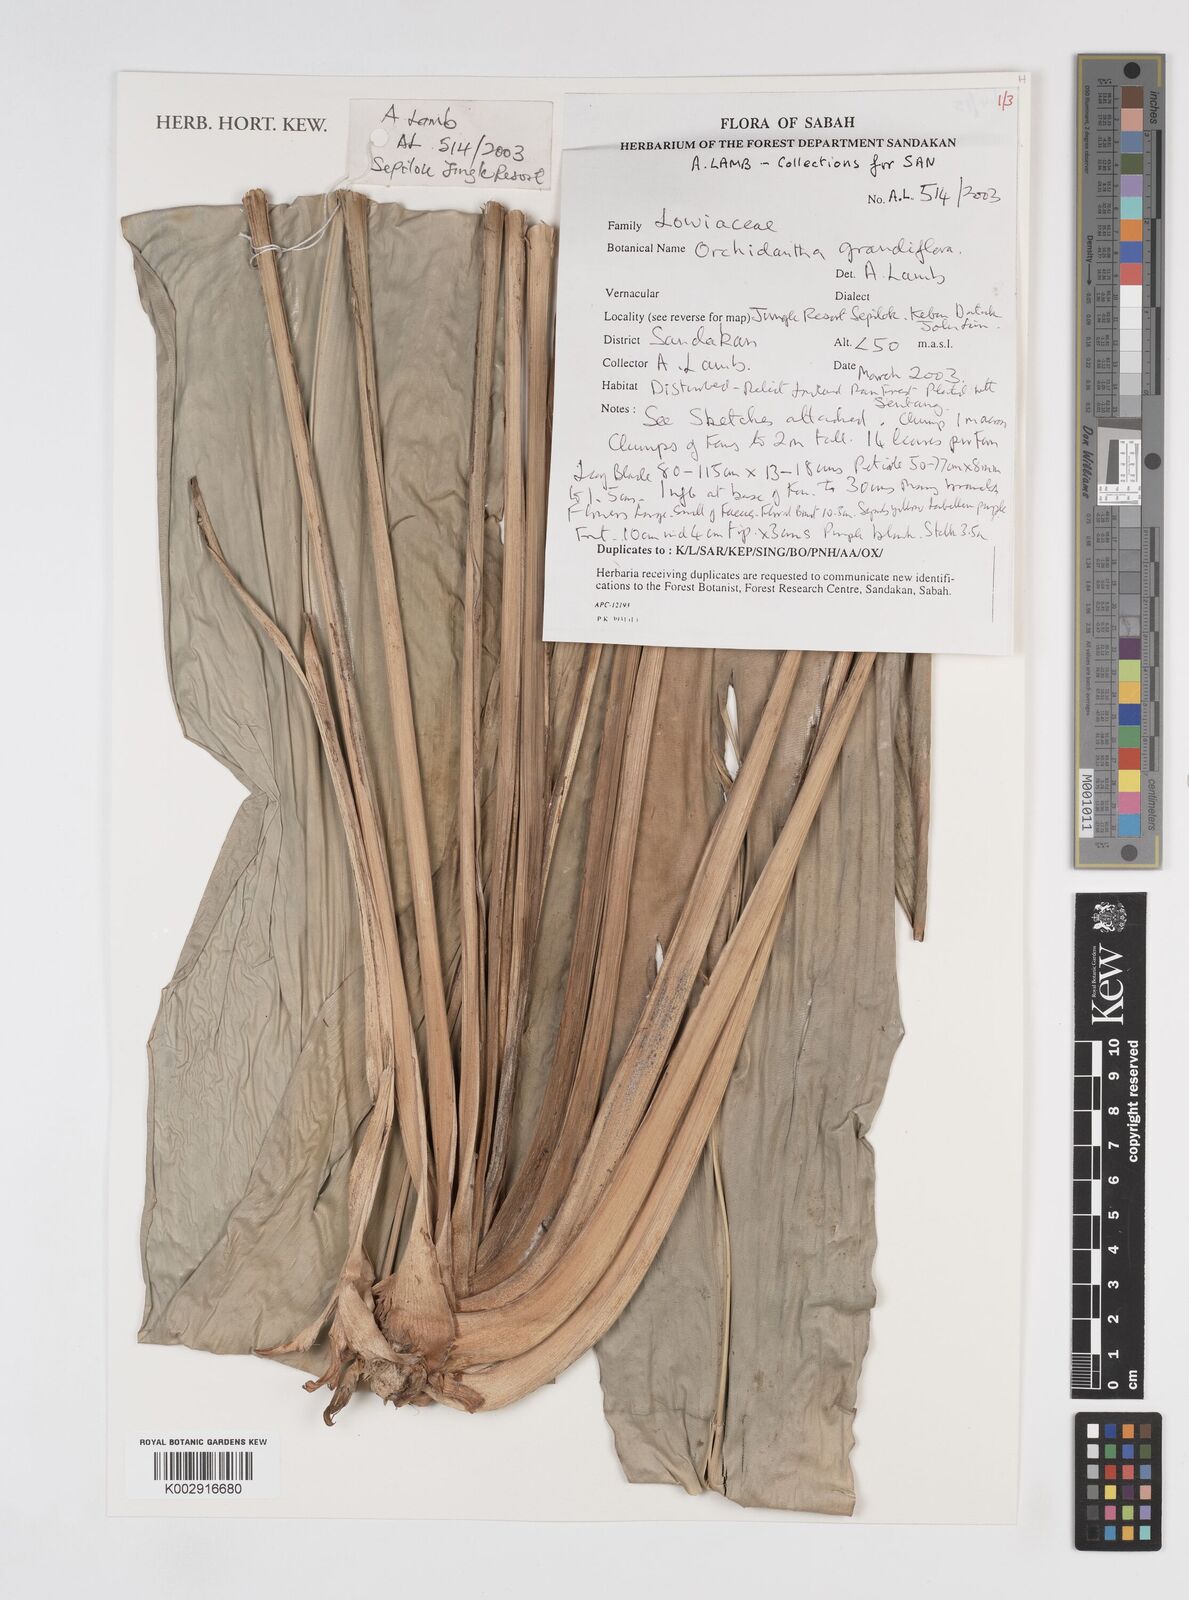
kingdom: Plantae
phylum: Tracheophyta
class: Liliopsida
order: Zingiberales
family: Lowiaceae
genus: Orchidantha
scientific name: Orchidantha grandiflora
